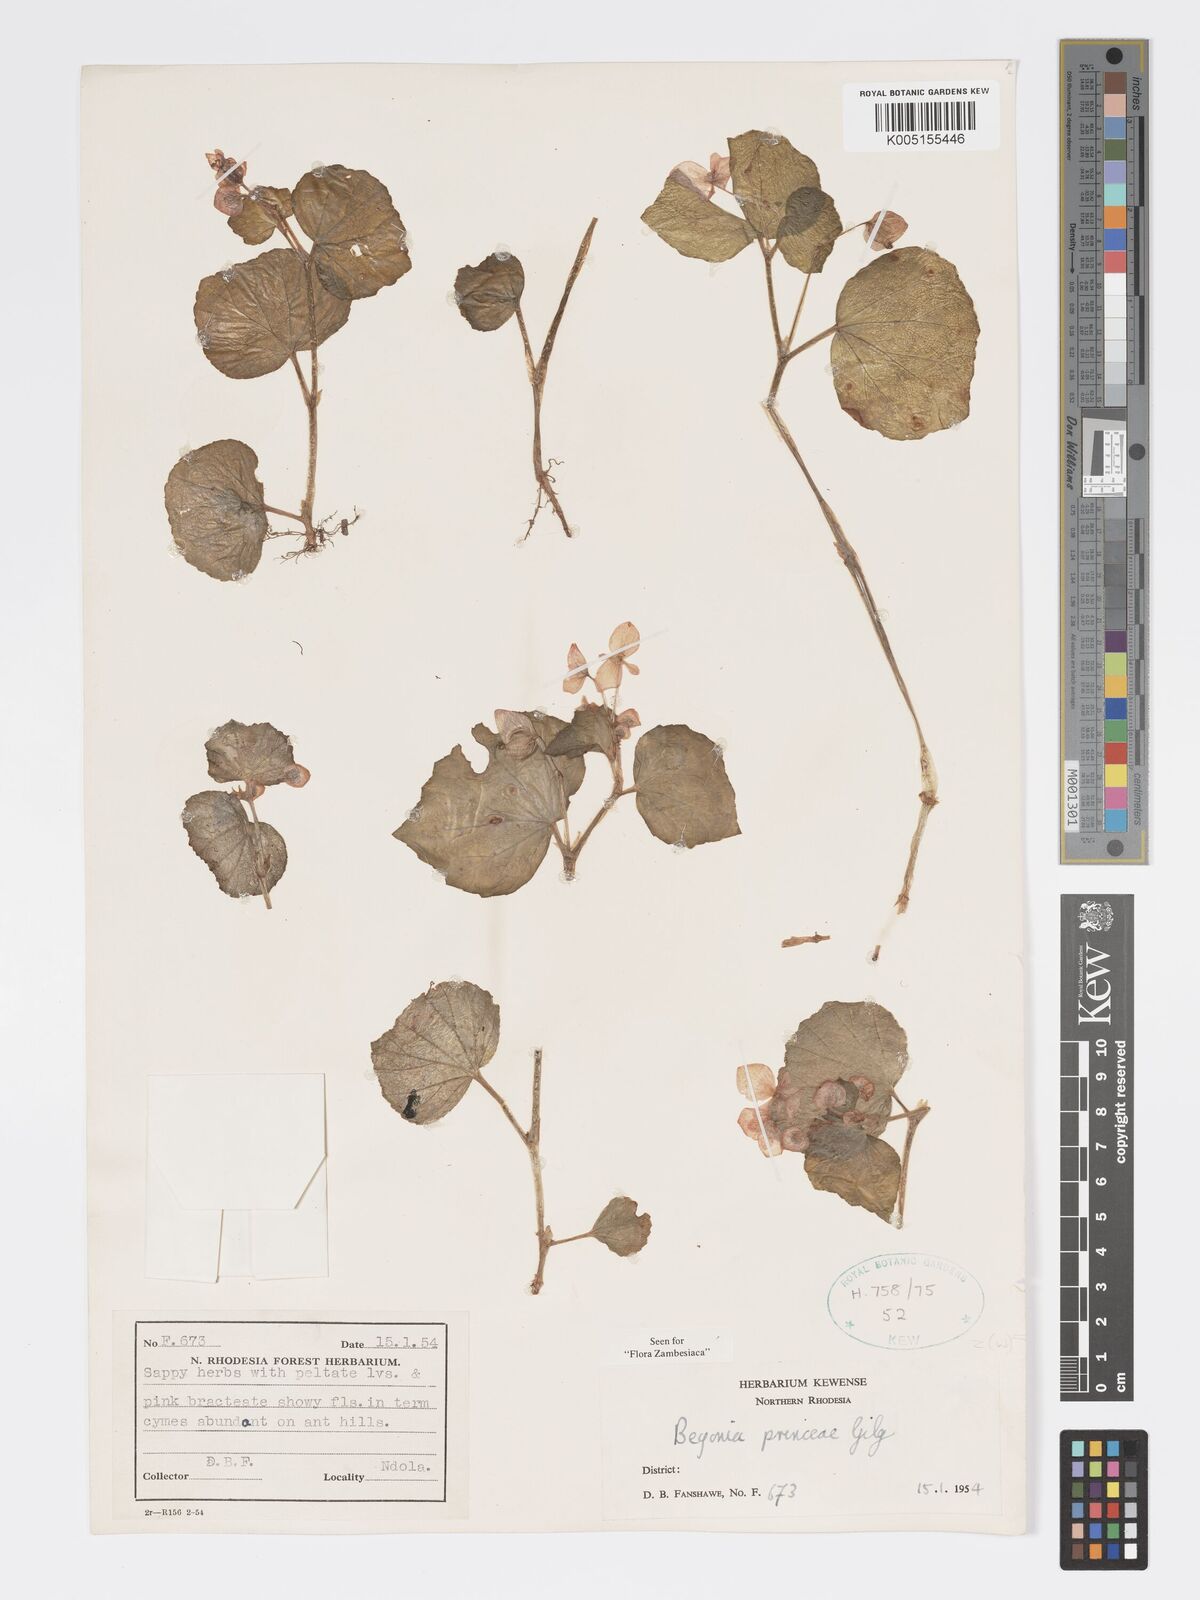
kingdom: Plantae
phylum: Tracheophyta
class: Magnoliopsida
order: Cucurbitales
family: Begoniaceae
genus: Begonia
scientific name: Begonia princeae
